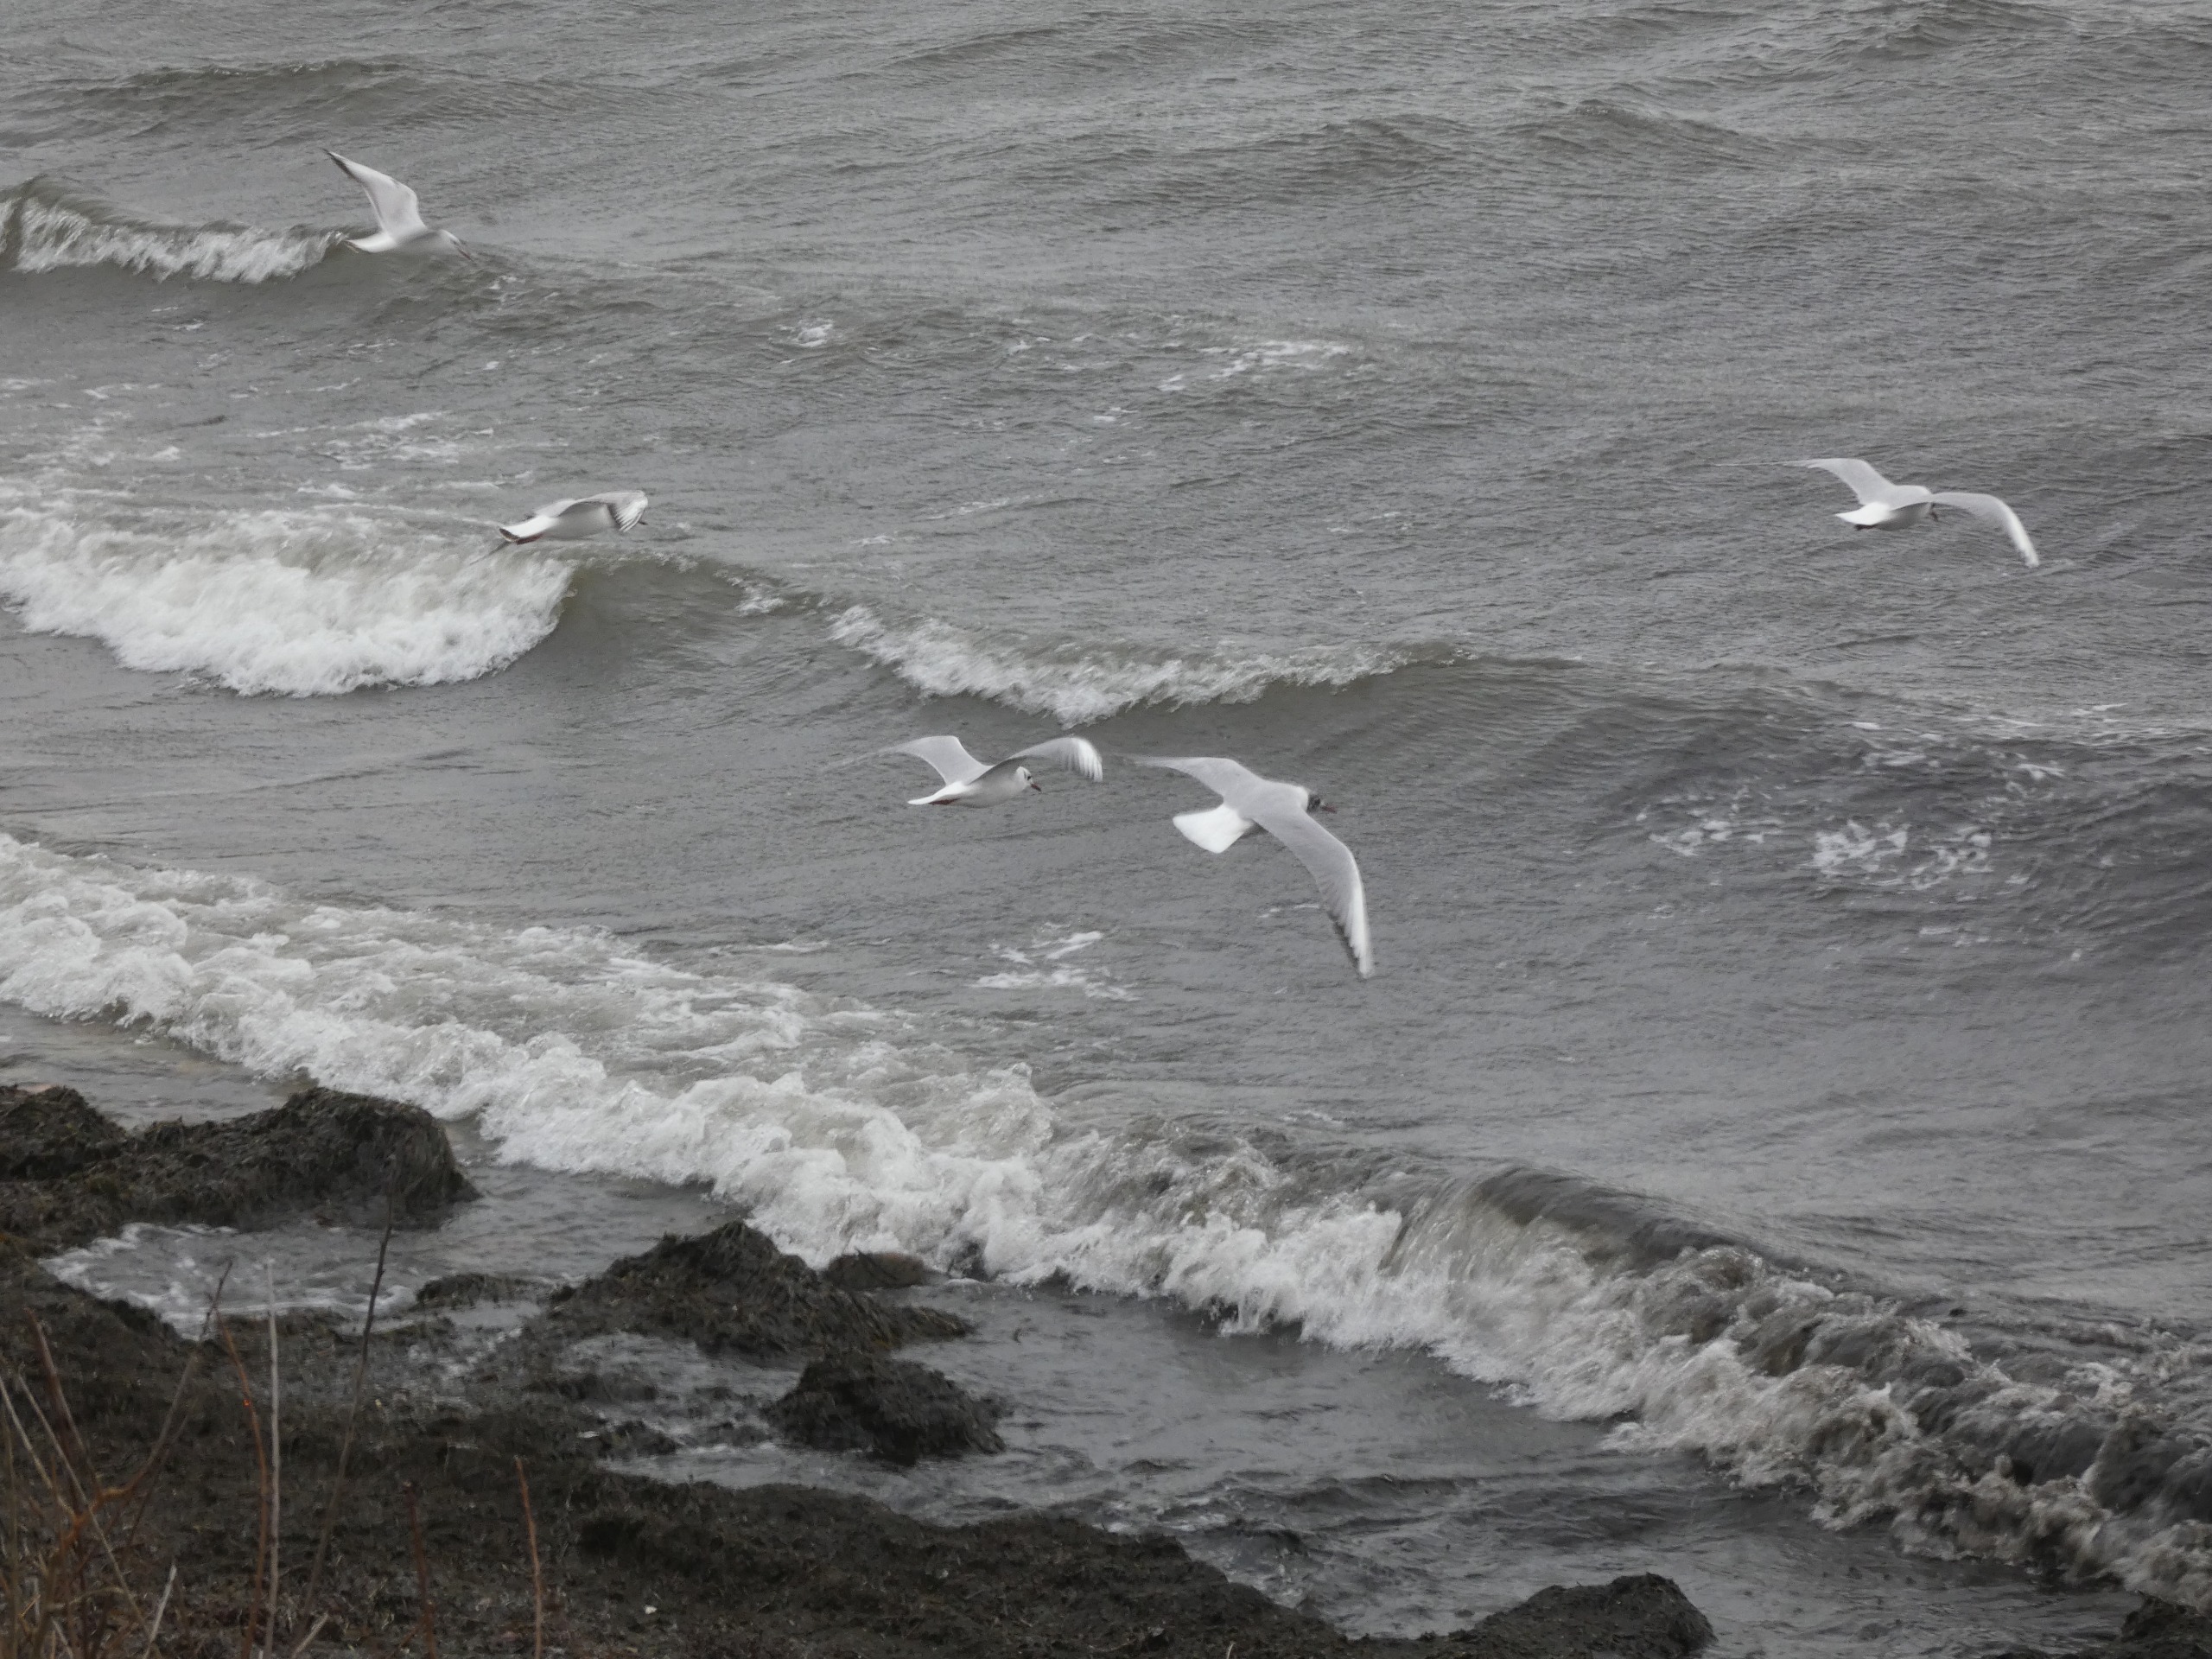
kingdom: Animalia
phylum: Chordata
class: Aves
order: Charadriiformes
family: Laridae
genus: Chroicocephalus
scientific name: Chroicocephalus ridibundus
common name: Hættemåge
